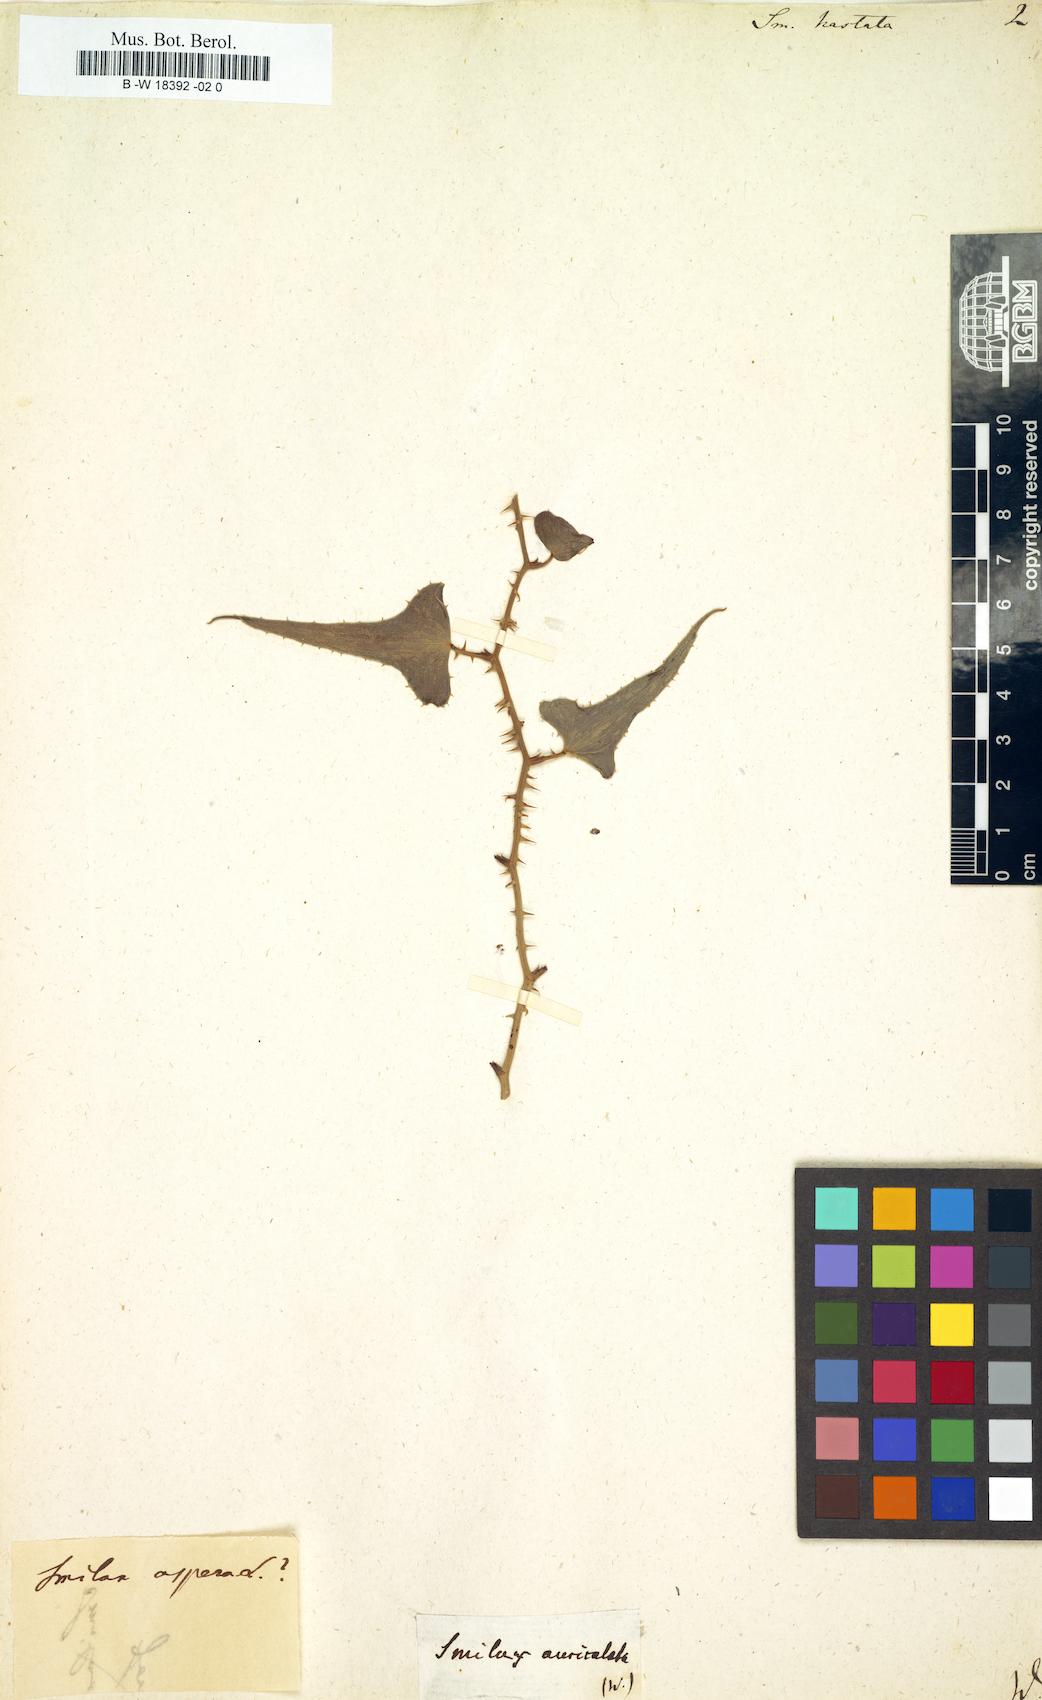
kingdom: Plantae
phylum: Tracheophyta
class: Liliopsida
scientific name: Liliopsida
